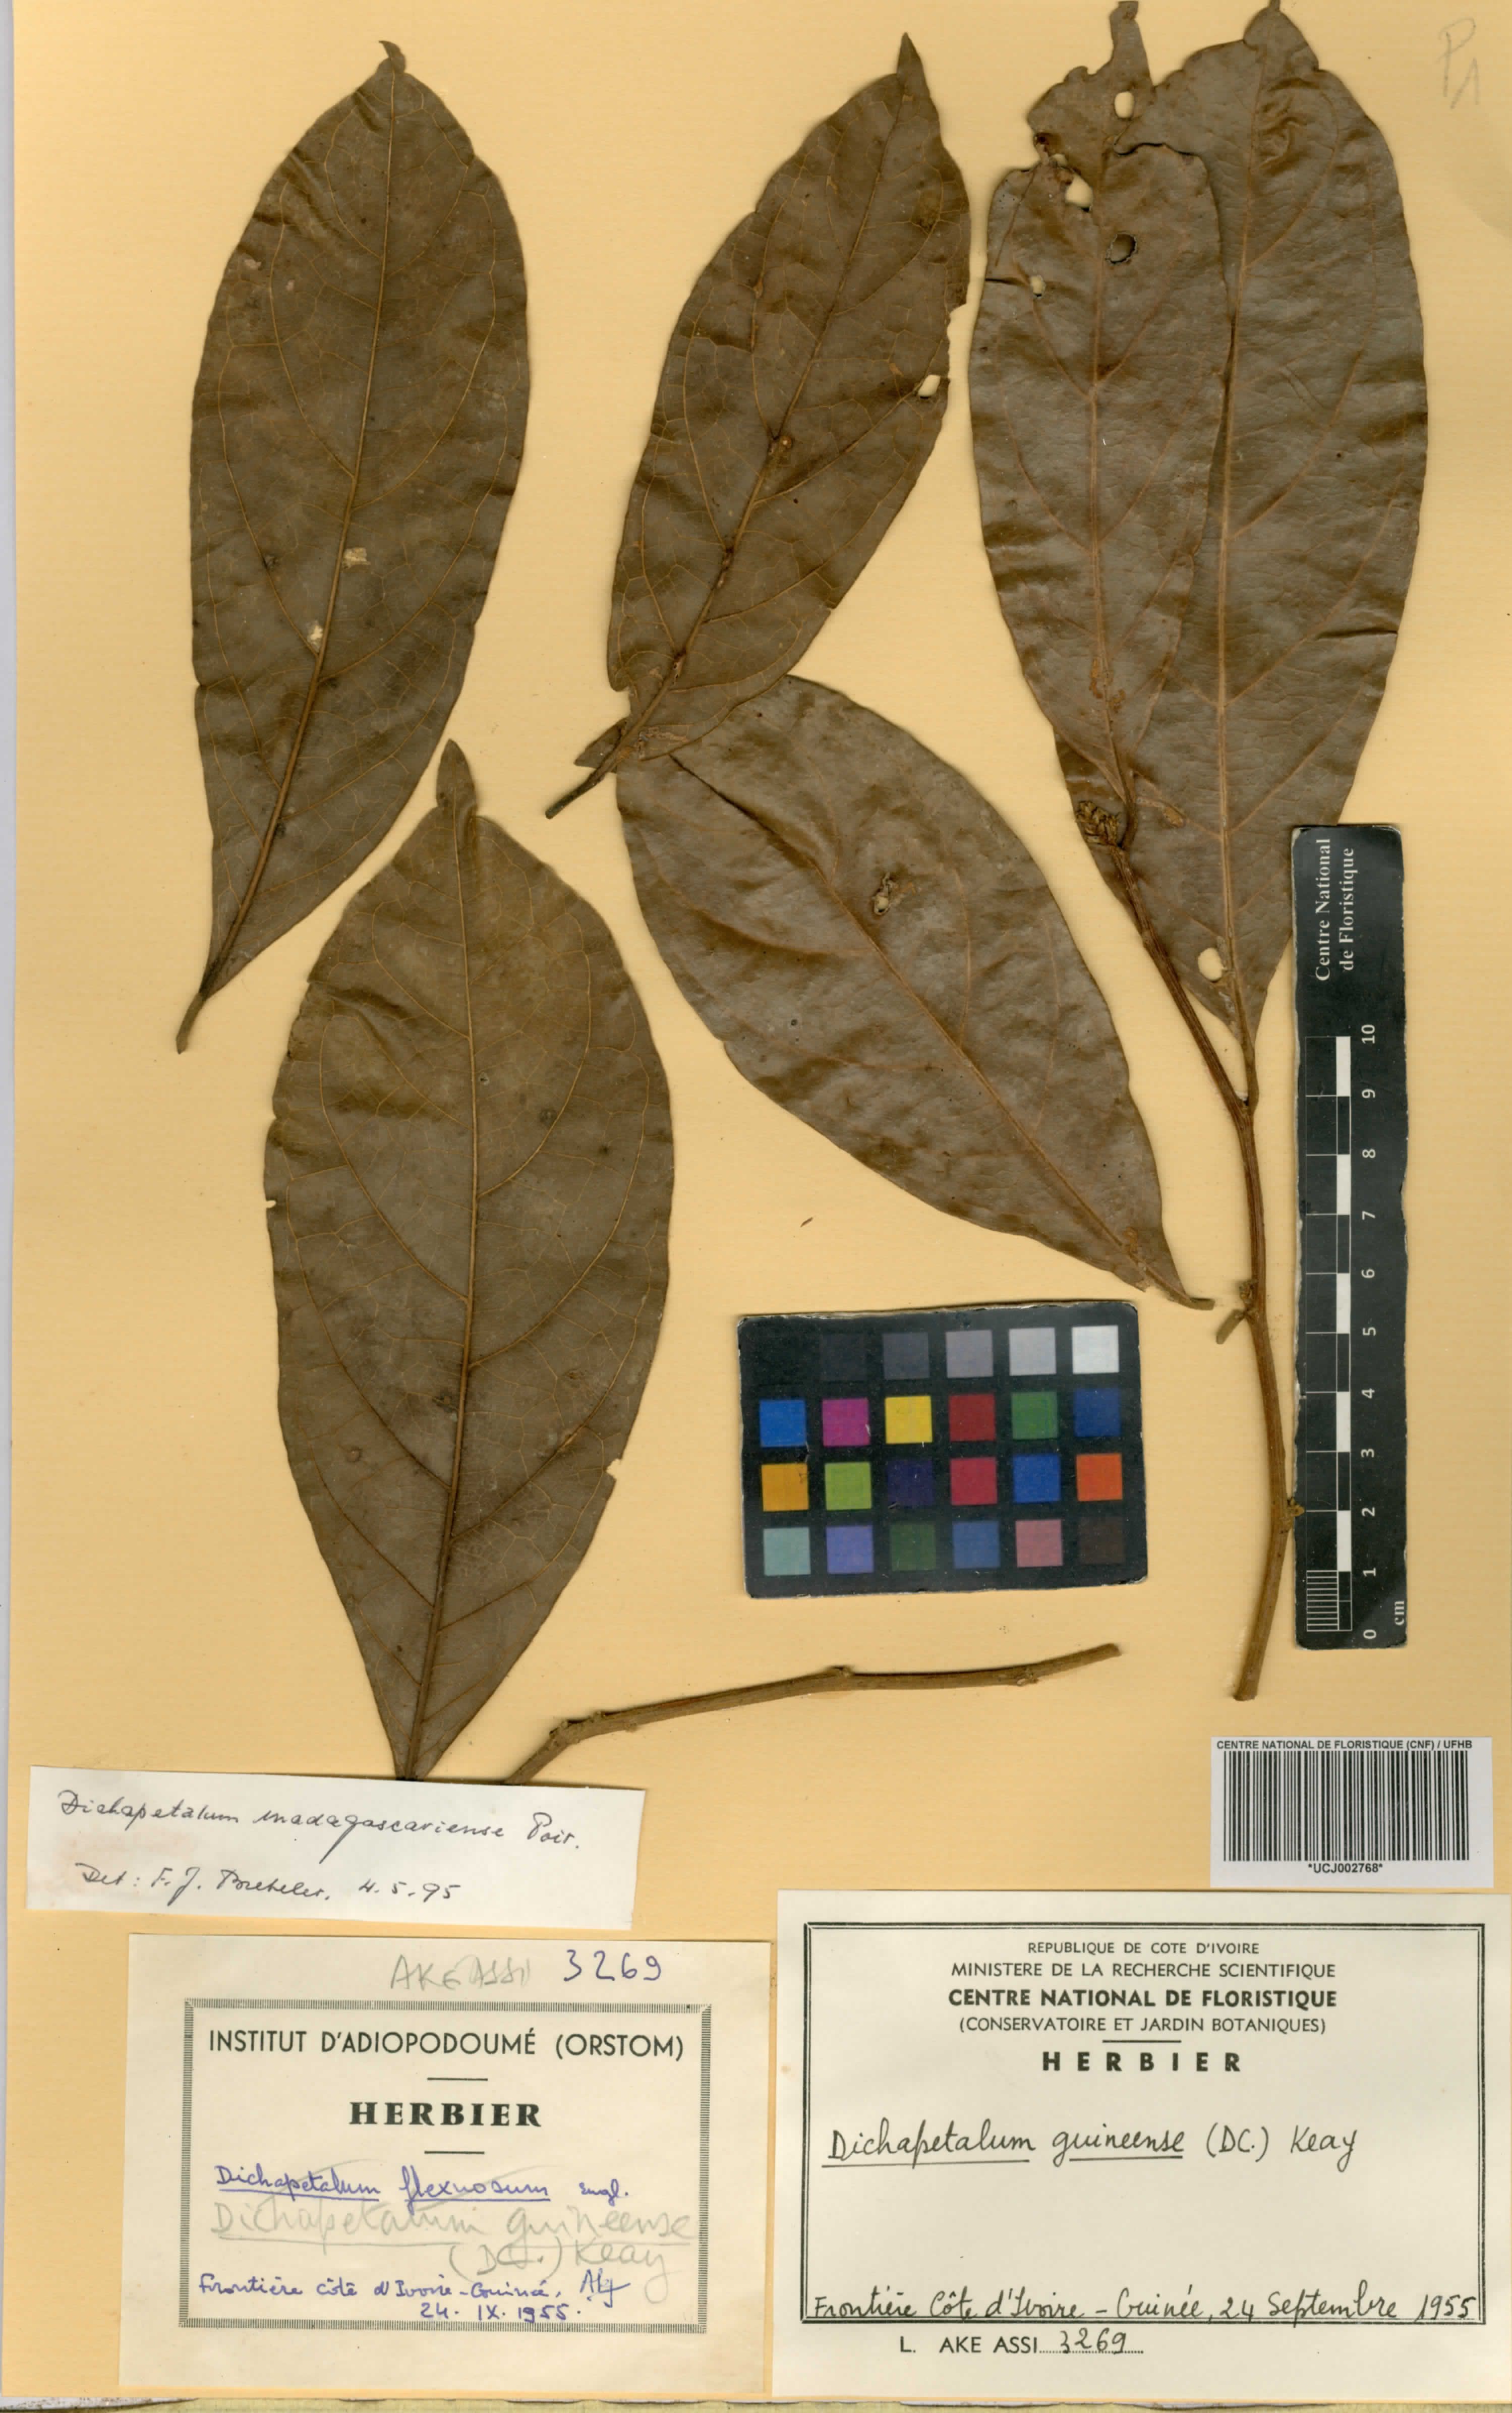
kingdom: Plantae
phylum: Tracheophyta
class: Magnoliopsida
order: Malpighiales
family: Dichapetalaceae
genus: Dichapetalum
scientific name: Dichapetalum madagascariense
